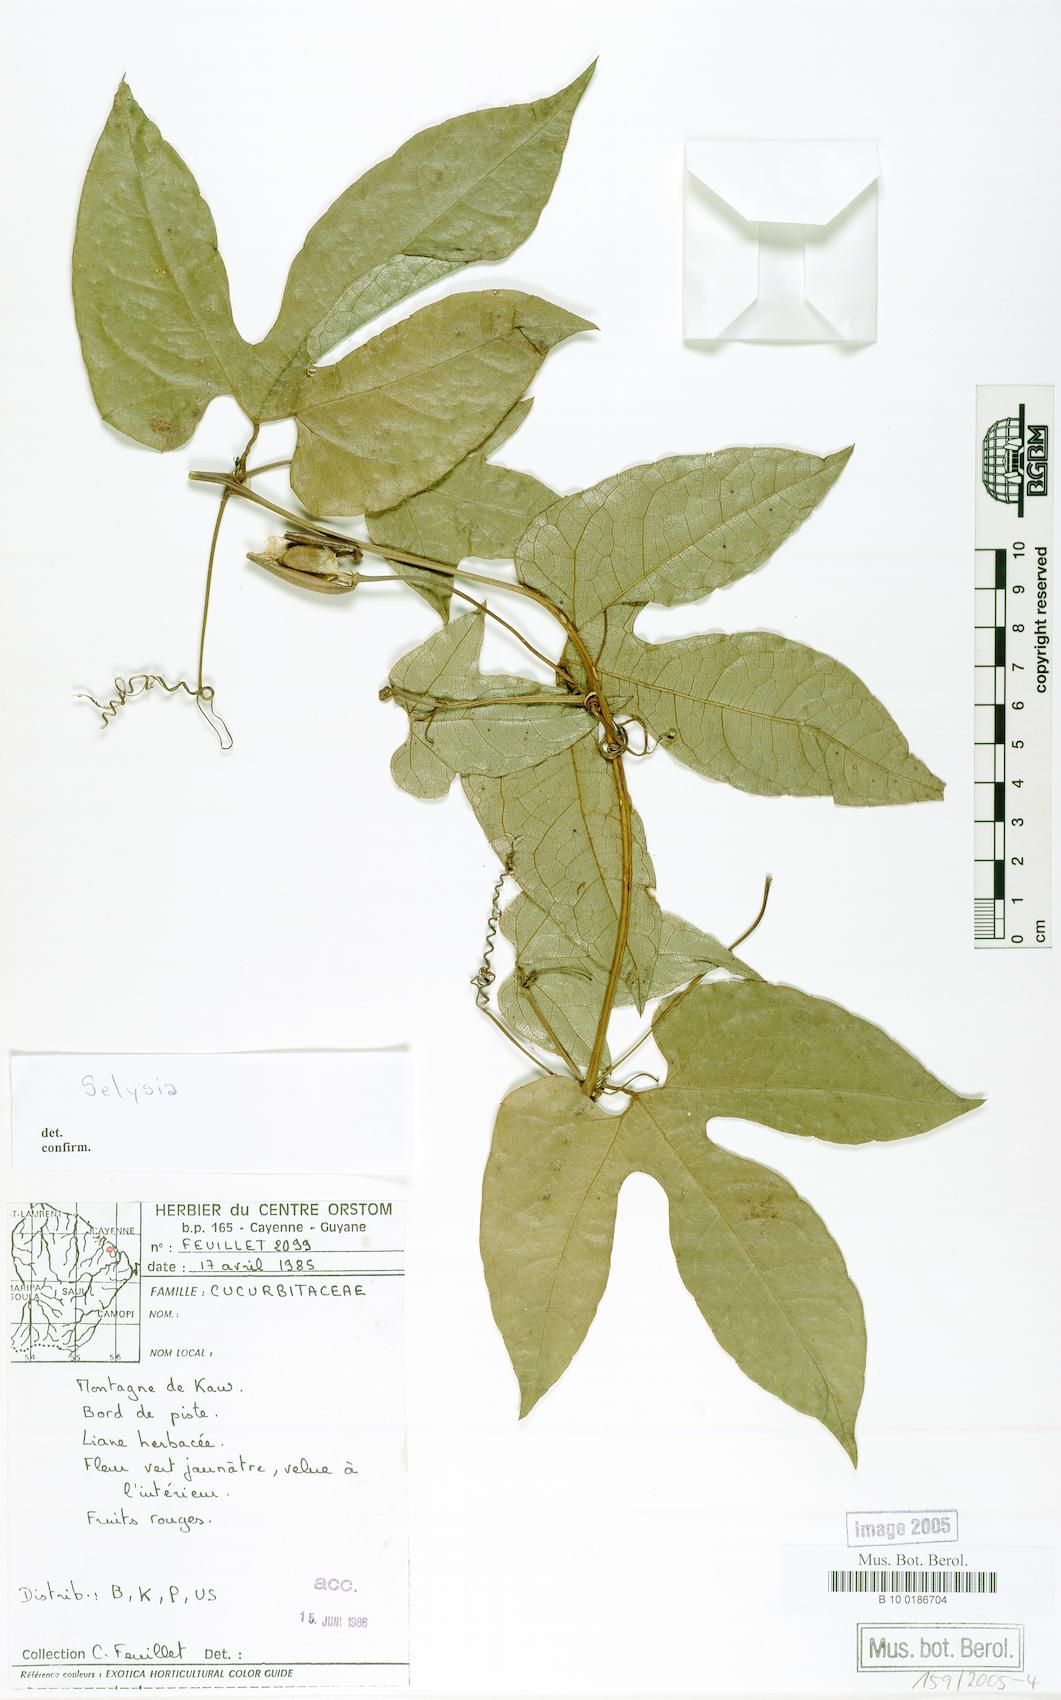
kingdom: Plantae
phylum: Tracheophyta
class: Magnoliopsida
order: Cucurbitales
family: Cucurbitaceae
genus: Selysia
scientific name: Selysia
